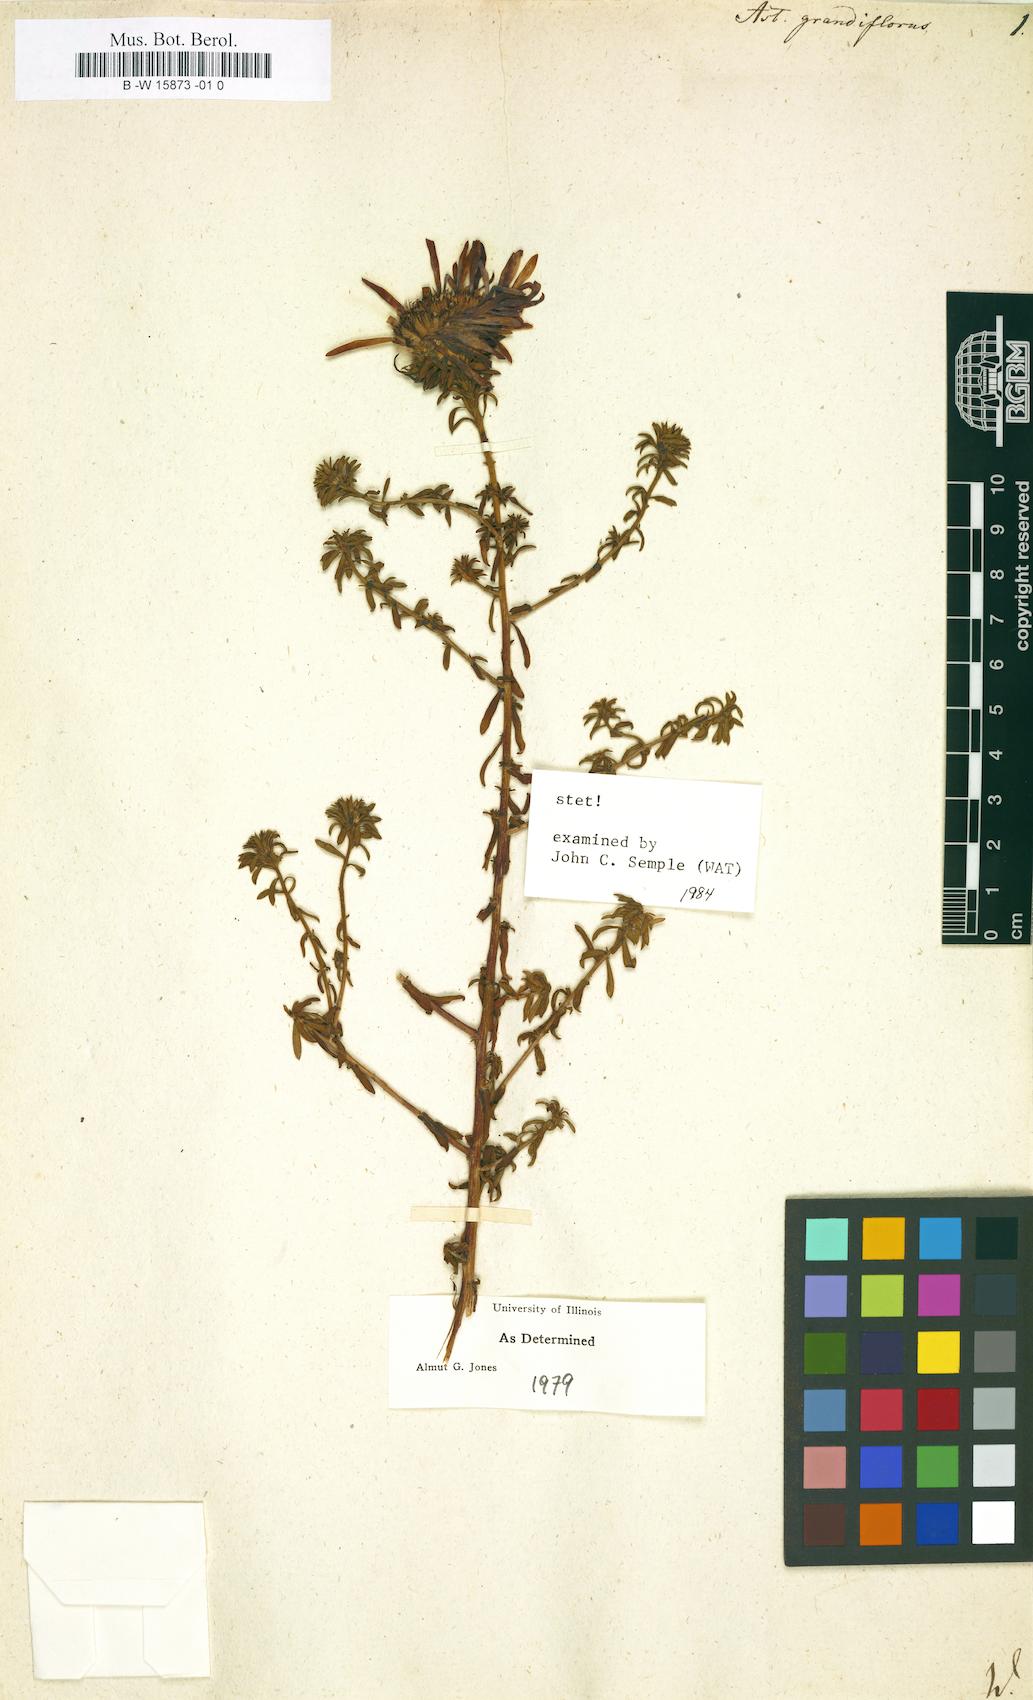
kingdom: Plantae
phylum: Tracheophyta
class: Magnoliopsida
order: Asterales
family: Asteraceae
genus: Aster
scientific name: Aster grandiflorus
